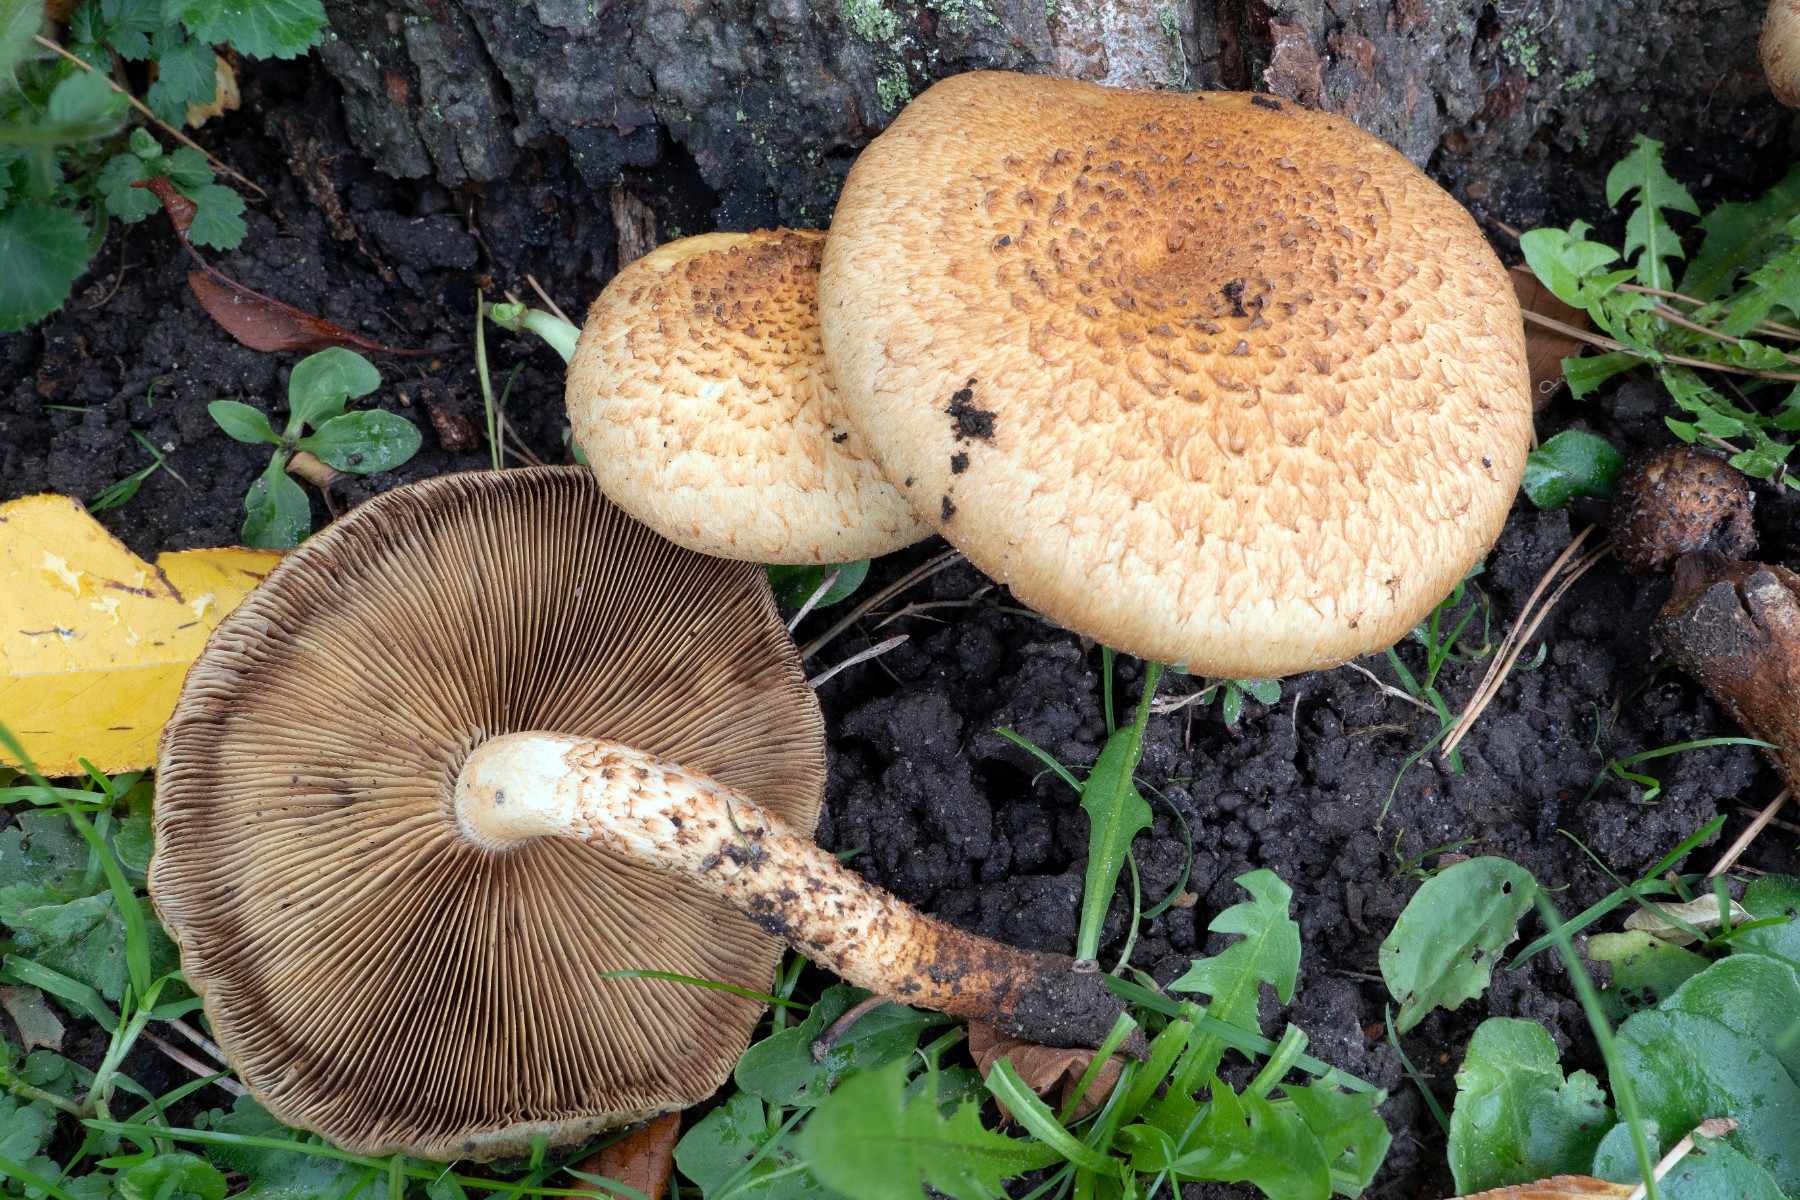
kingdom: Fungi
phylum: Basidiomycota
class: Agaricomycetes
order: Agaricales
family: Strophariaceae
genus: Pholiota
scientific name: Pholiota squarrosa
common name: krumskællet skælhat
